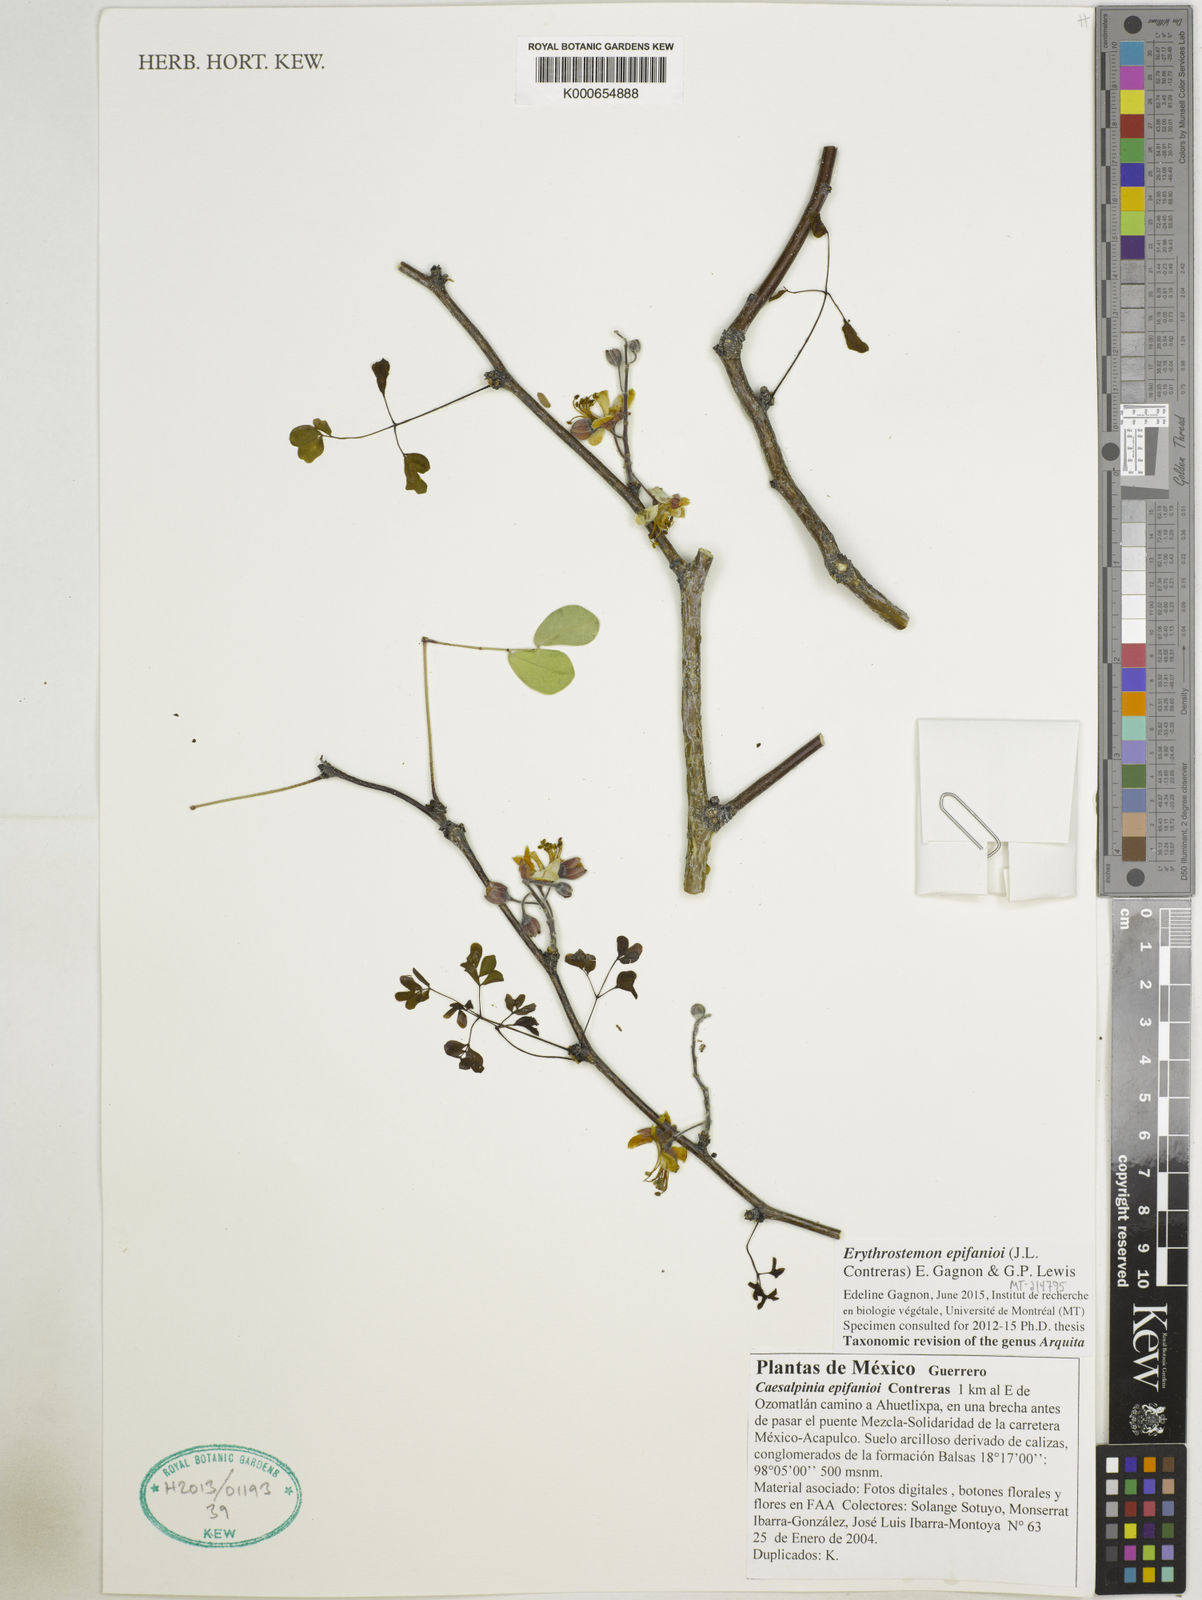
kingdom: Plantae
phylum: Tracheophyta
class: Magnoliopsida
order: Fabales
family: Fabaceae
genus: Erythrostemon
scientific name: Erythrostemon epifanioi
